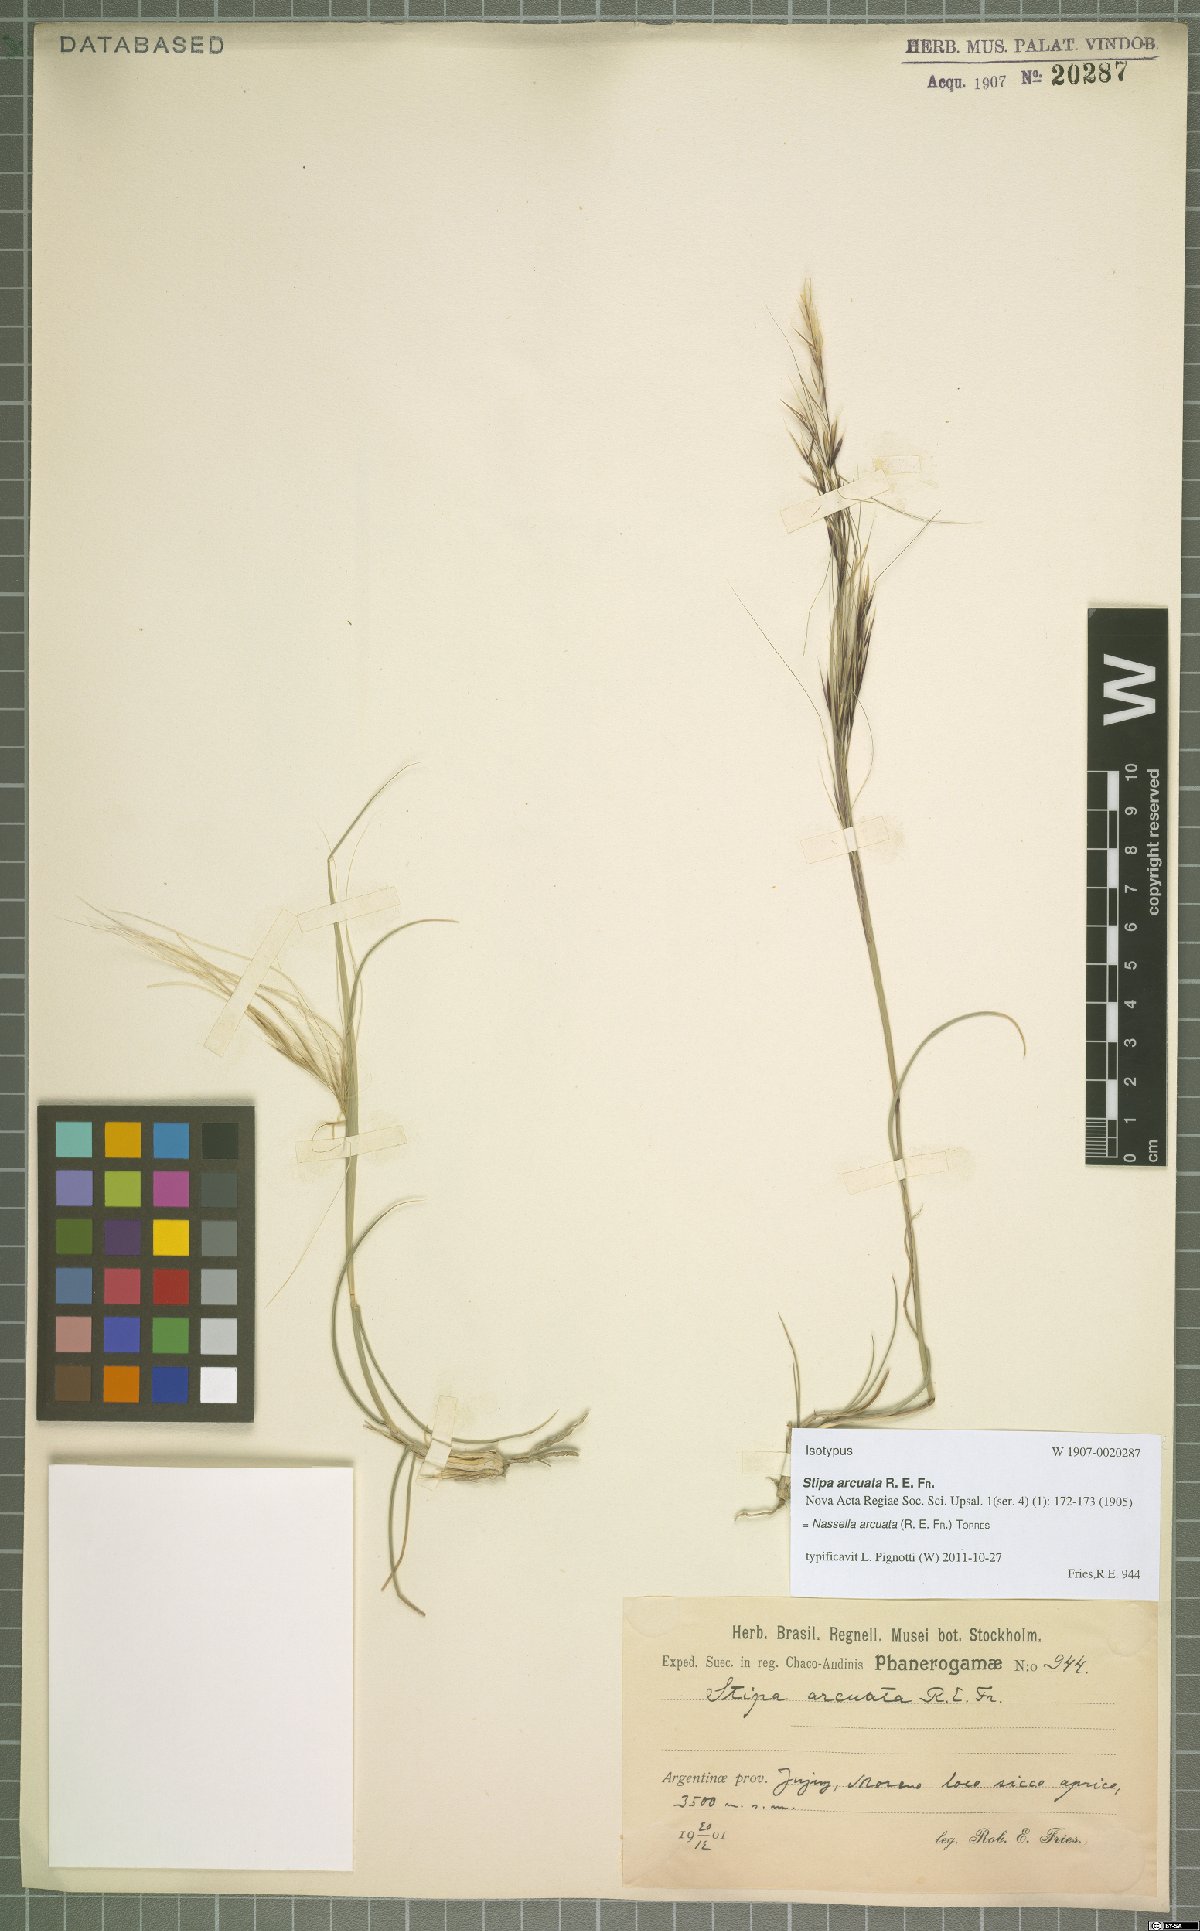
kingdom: Plantae
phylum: Tracheophyta
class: Liliopsida
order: Poales
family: Poaceae
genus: Nassella
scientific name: Nassella arcuata
